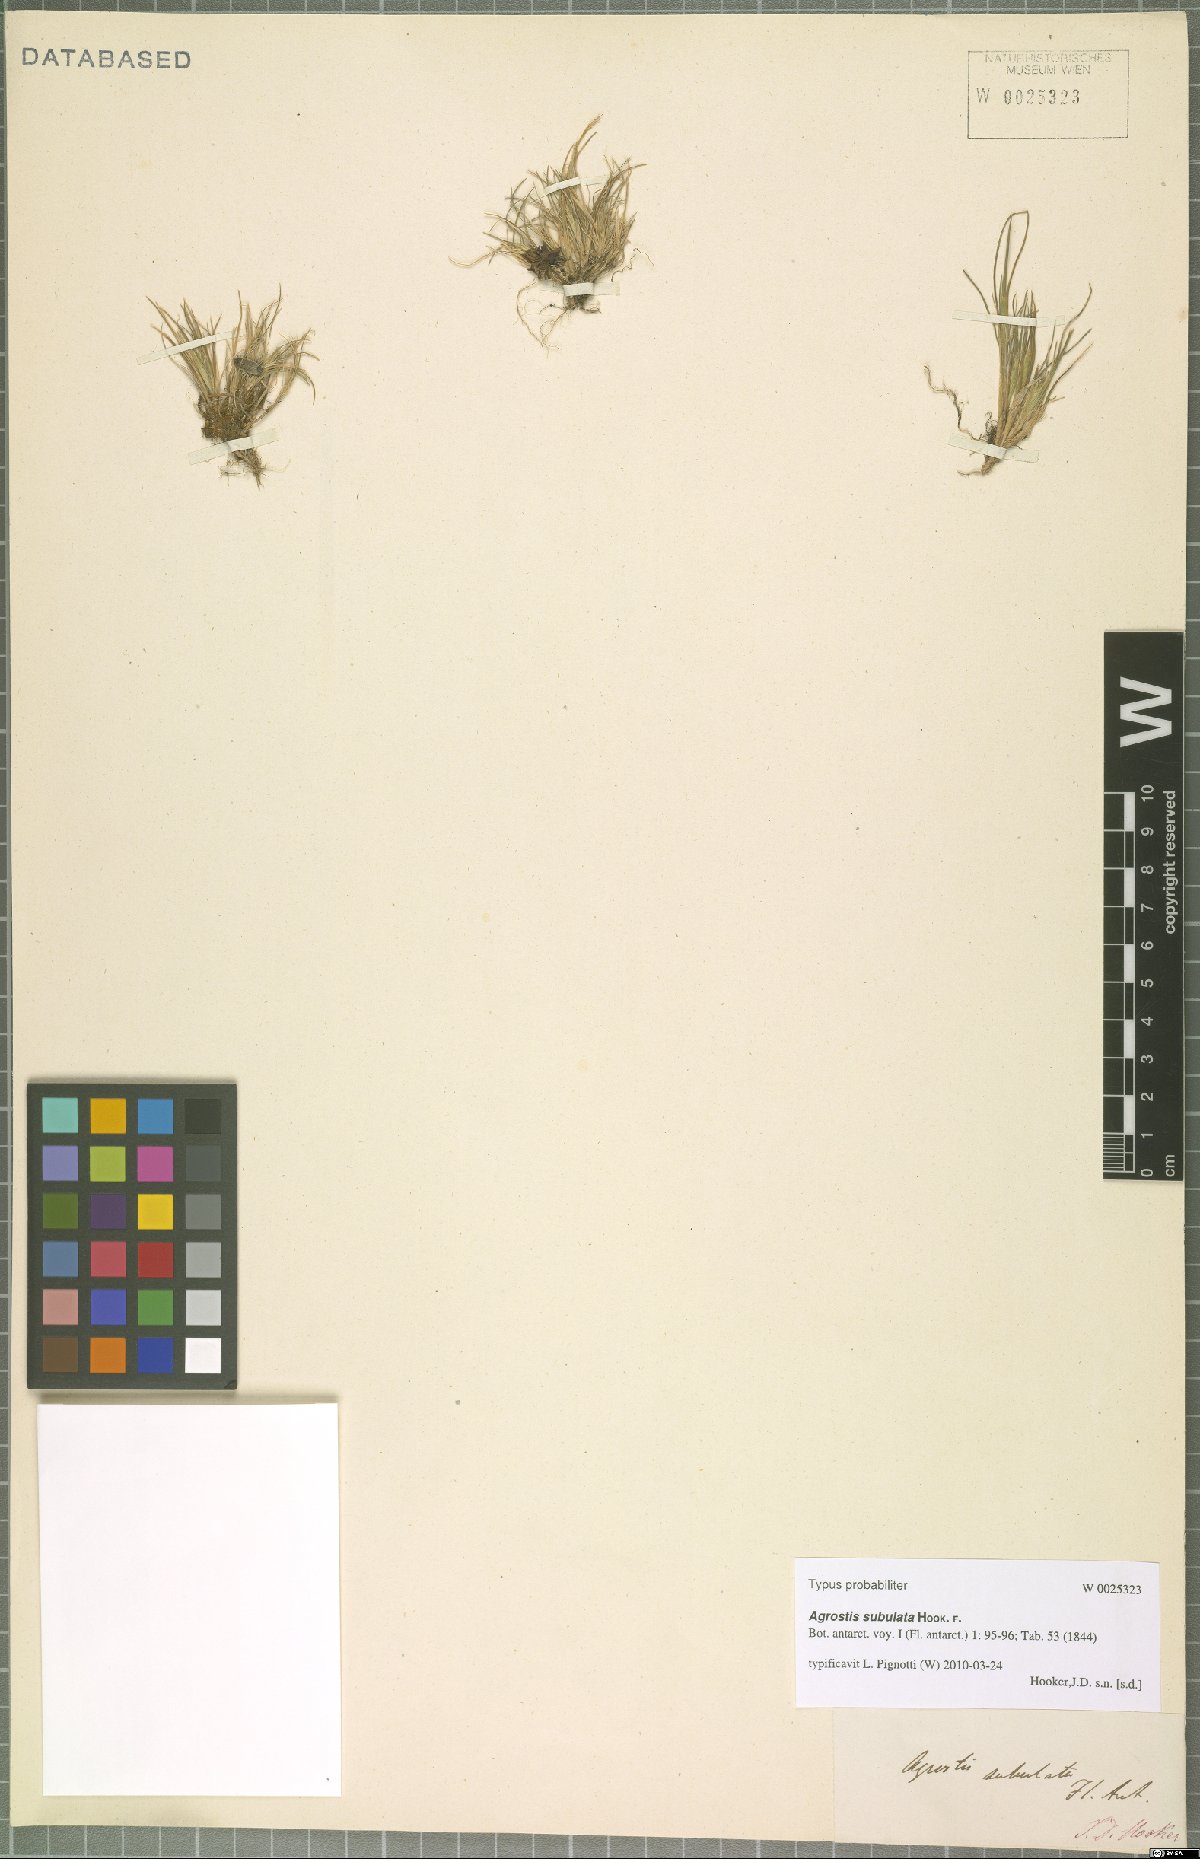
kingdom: Plantae
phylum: Tracheophyta
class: Liliopsida
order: Poales
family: Poaceae
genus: Agrostis
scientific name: Agrostis subulata
